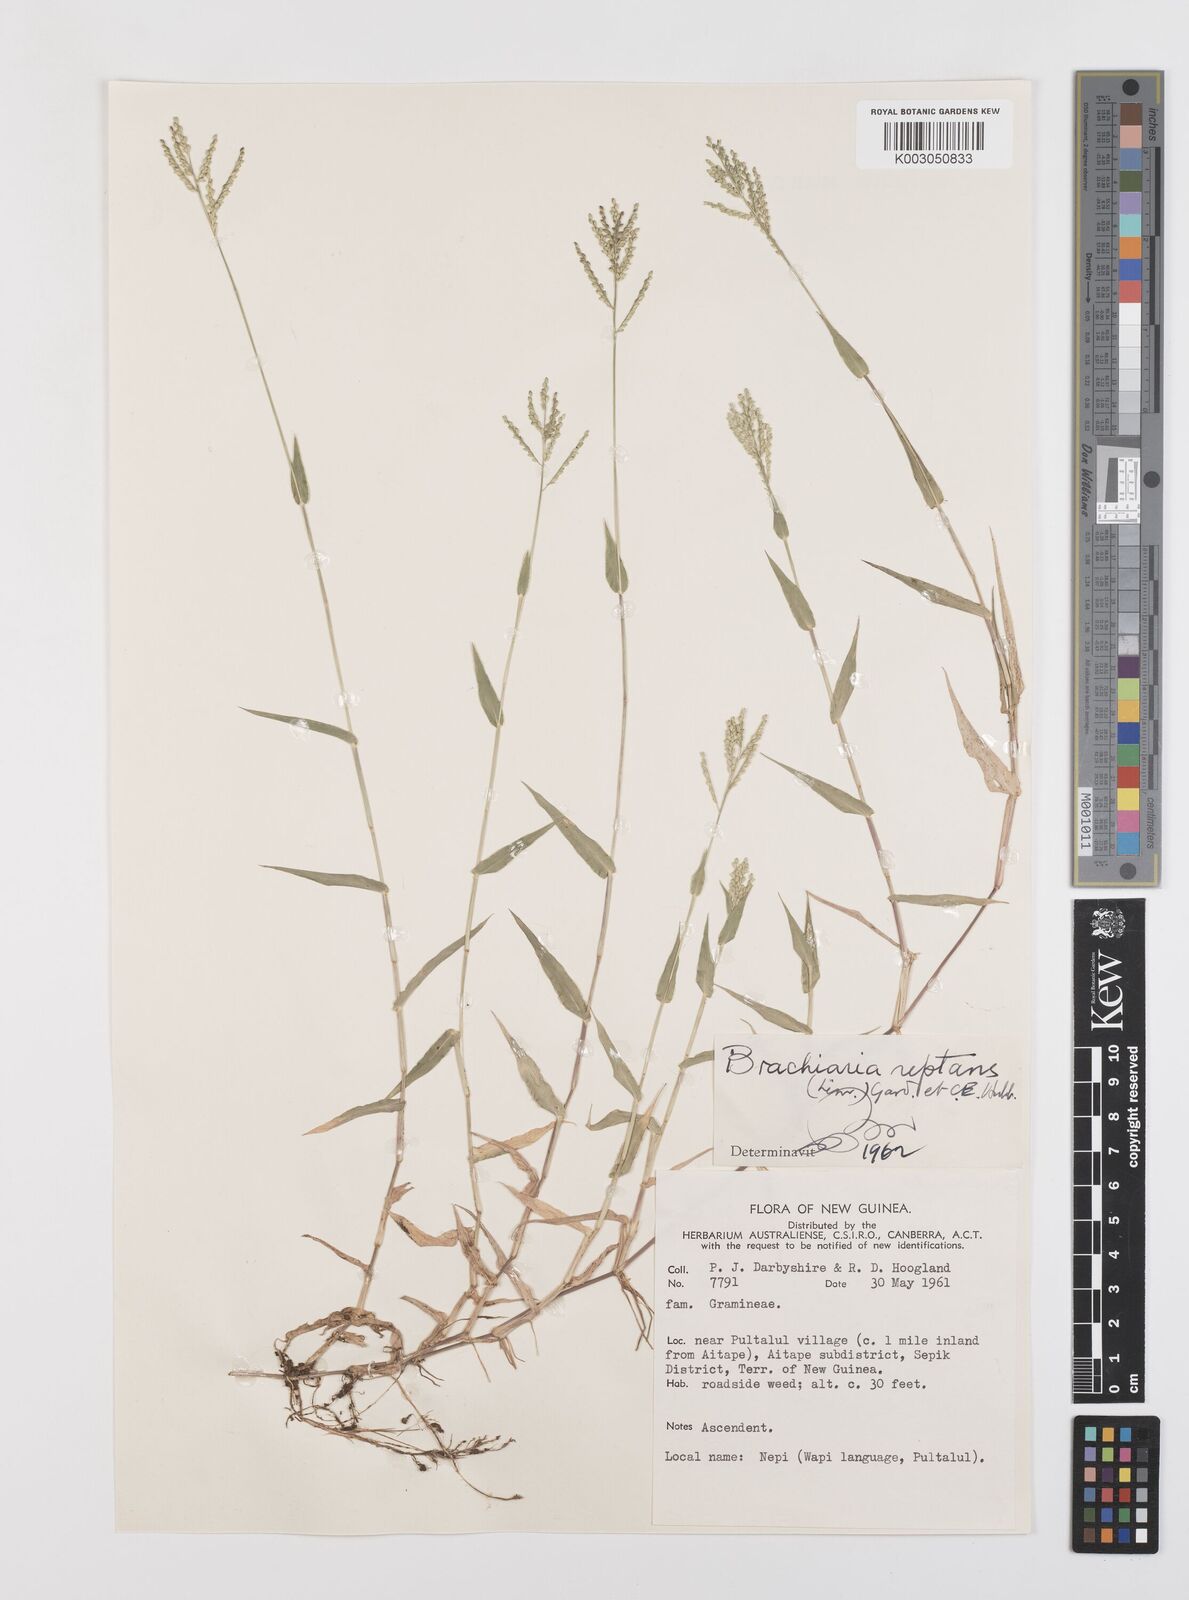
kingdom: Plantae
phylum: Tracheophyta
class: Liliopsida
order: Poales
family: Poaceae
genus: Urochloa
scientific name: Urochloa reptans
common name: Sprawling signalgrass
